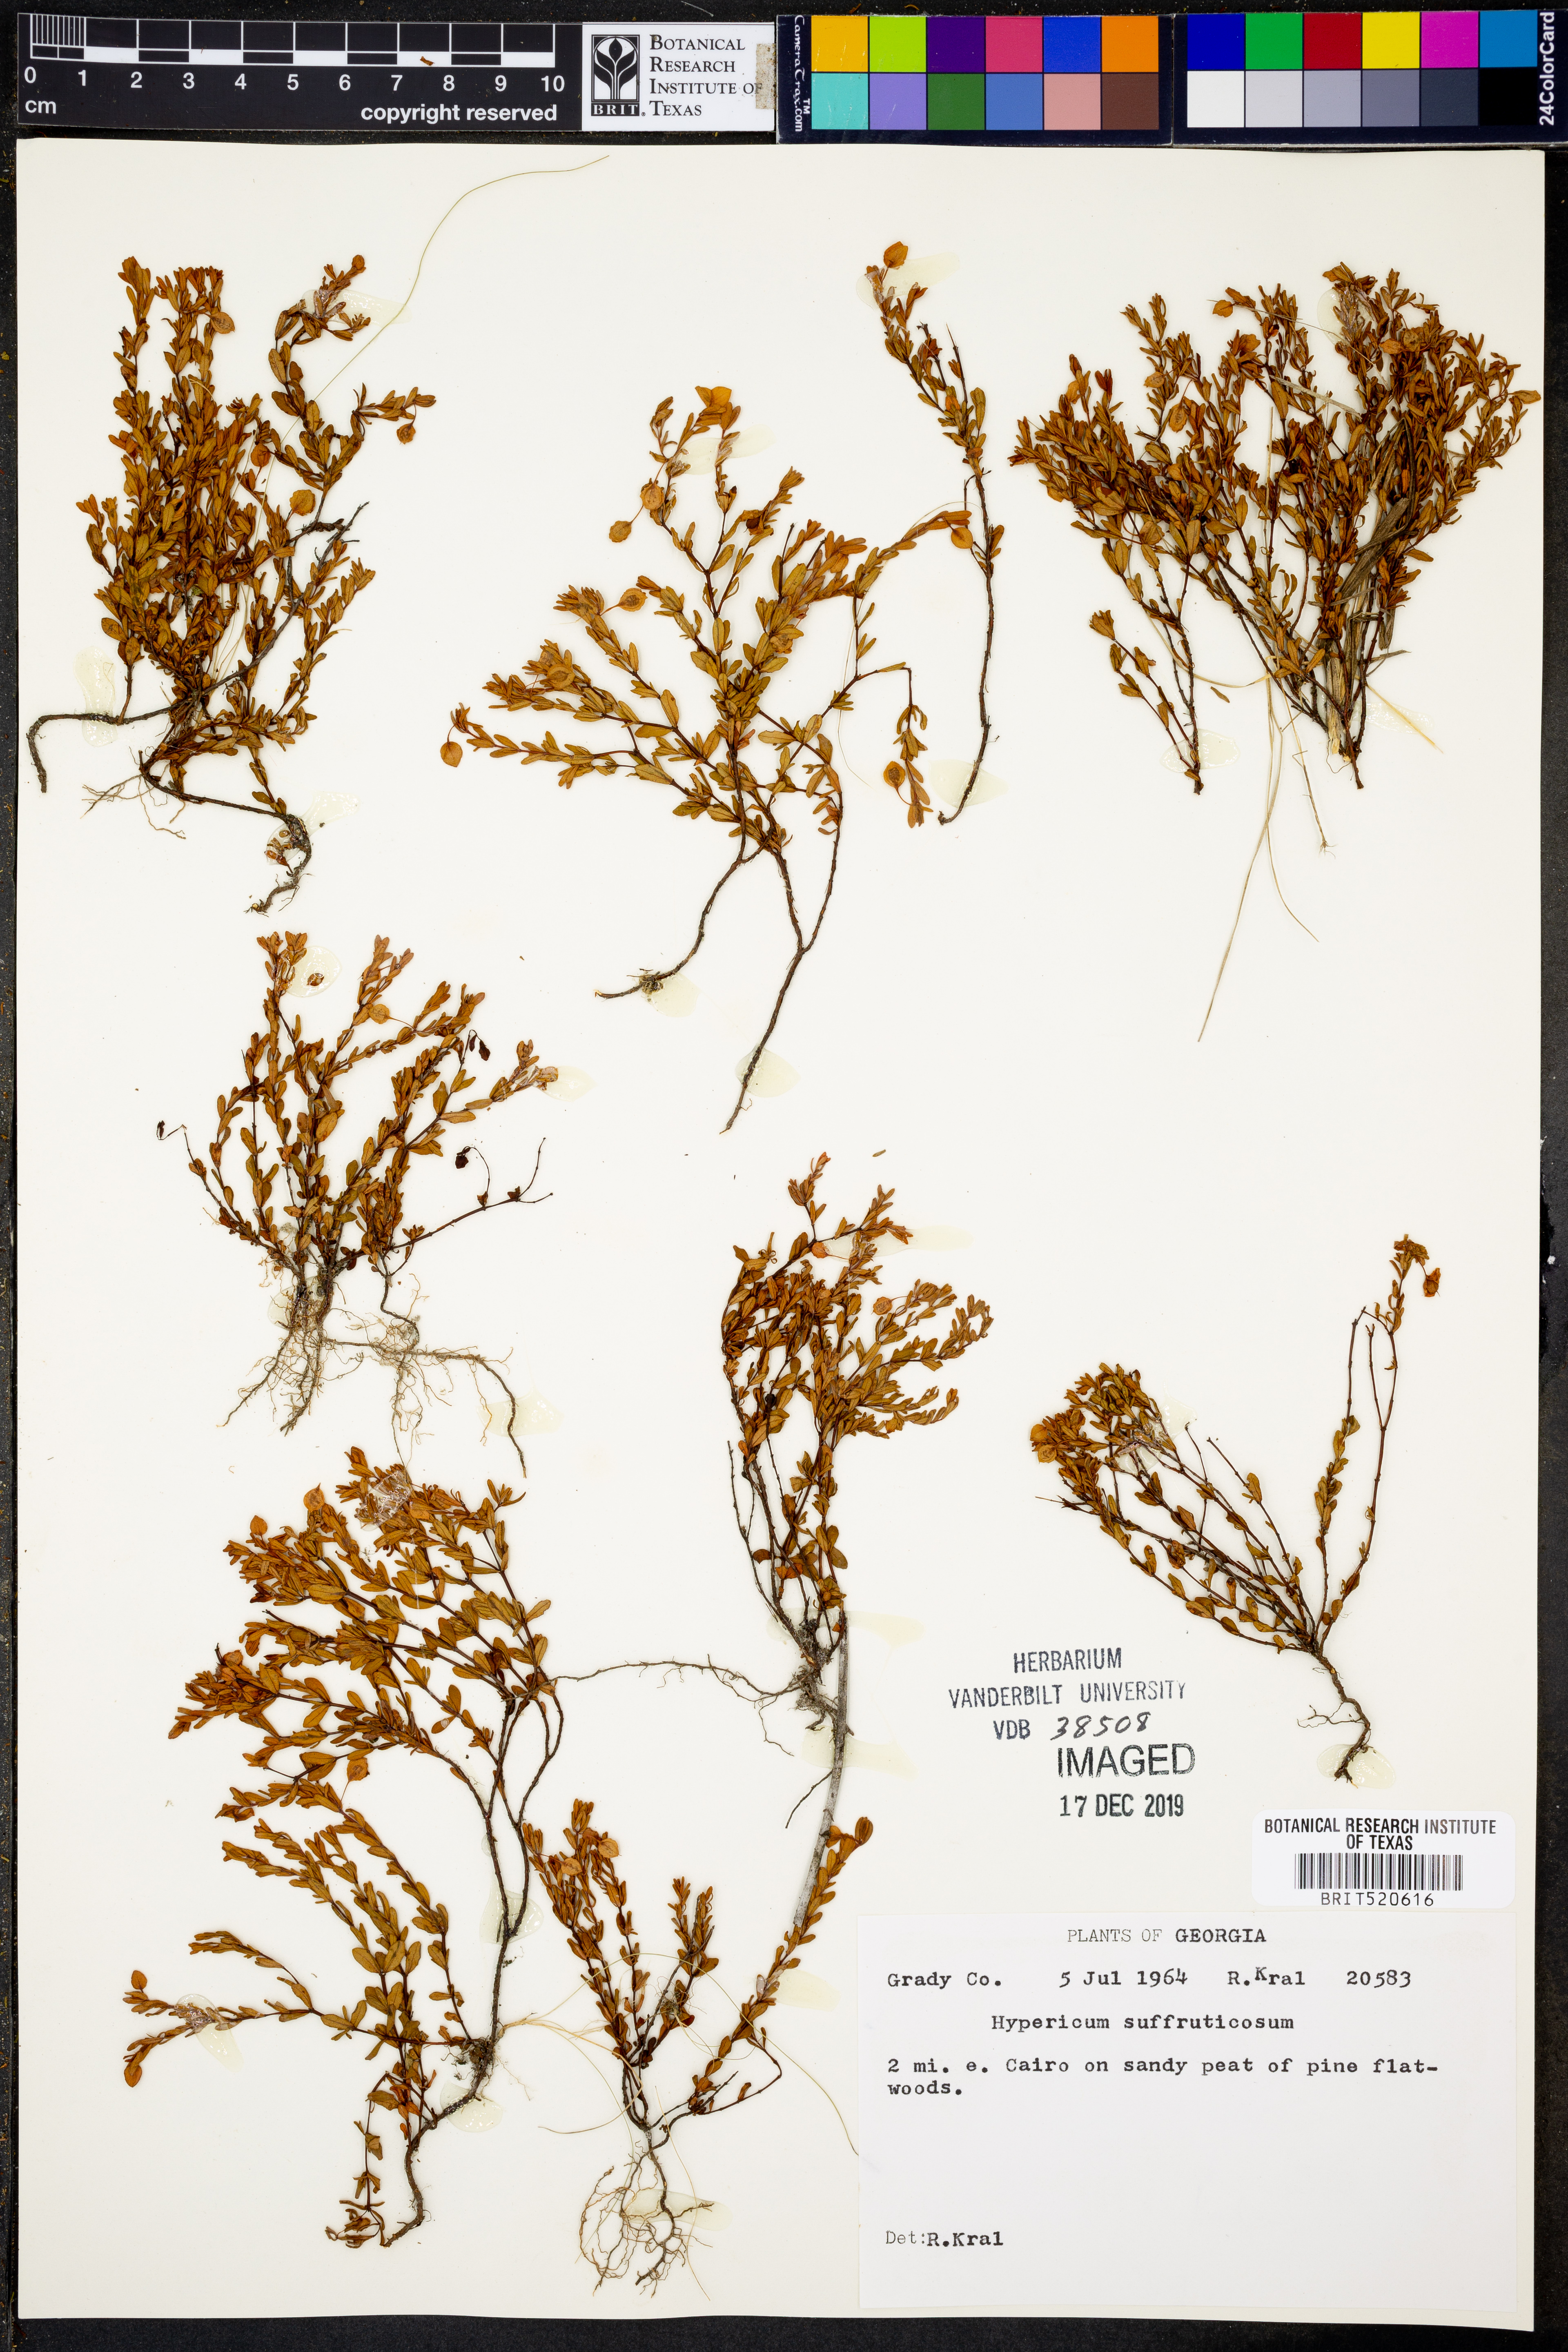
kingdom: Plantae
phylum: Tracheophyta
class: Magnoliopsida
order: Malpighiales
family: Hypericaceae
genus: Hypericum
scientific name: Hypericum suffruticosum
